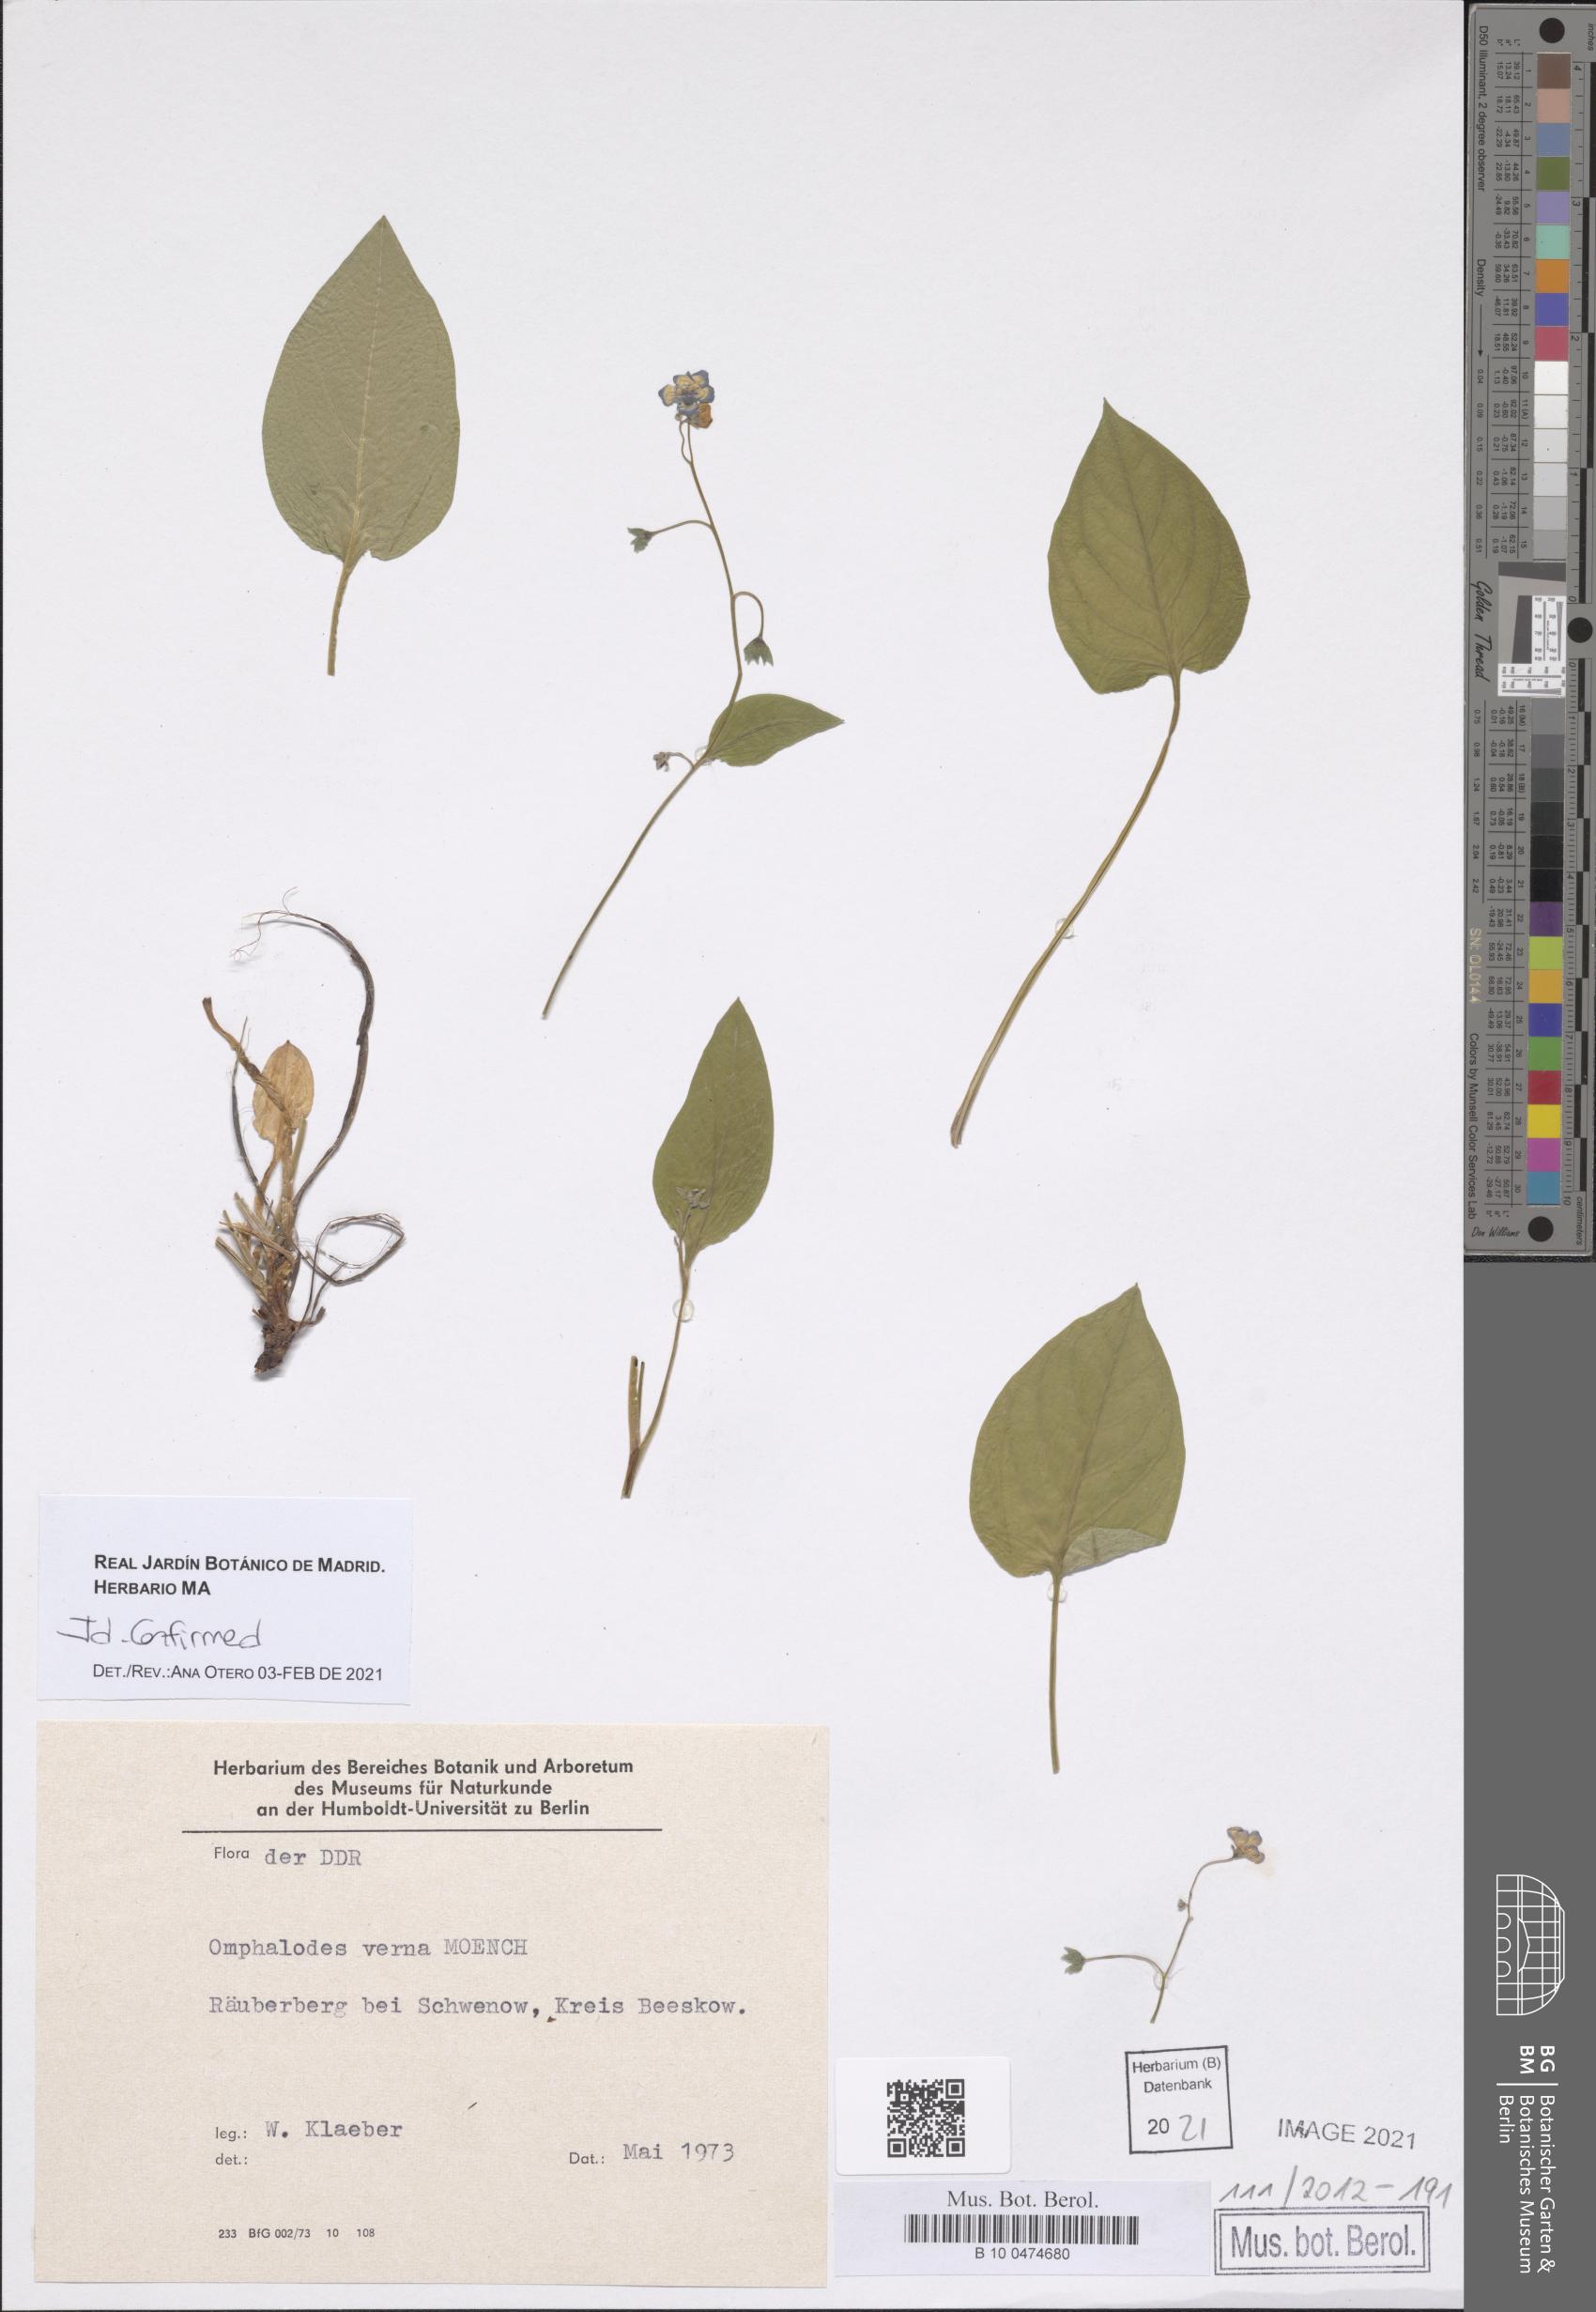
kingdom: Plantae
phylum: Tracheophyta
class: Magnoliopsida
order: Boraginales
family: Boraginaceae
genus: Omphalodes
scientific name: Omphalodes verna
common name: Blue-eyed-mary
